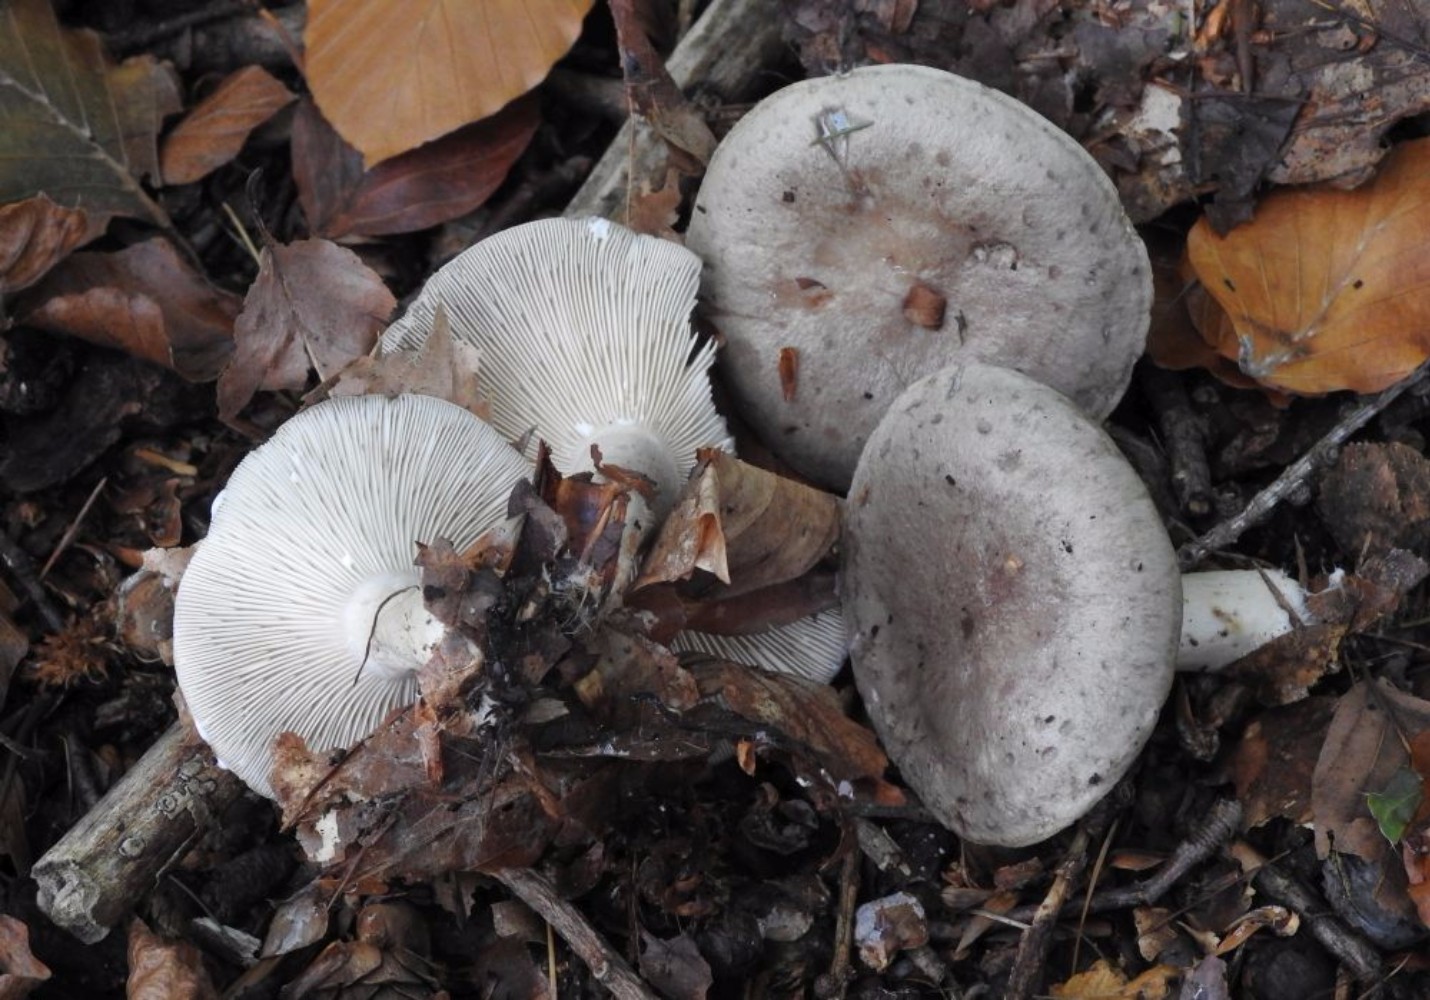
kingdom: Fungi
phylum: Basidiomycota
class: Agaricomycetes
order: Russulales
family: Russulaceae
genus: Lactarius
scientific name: Lactarius blennius
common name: dråbeplettet mælkehat
